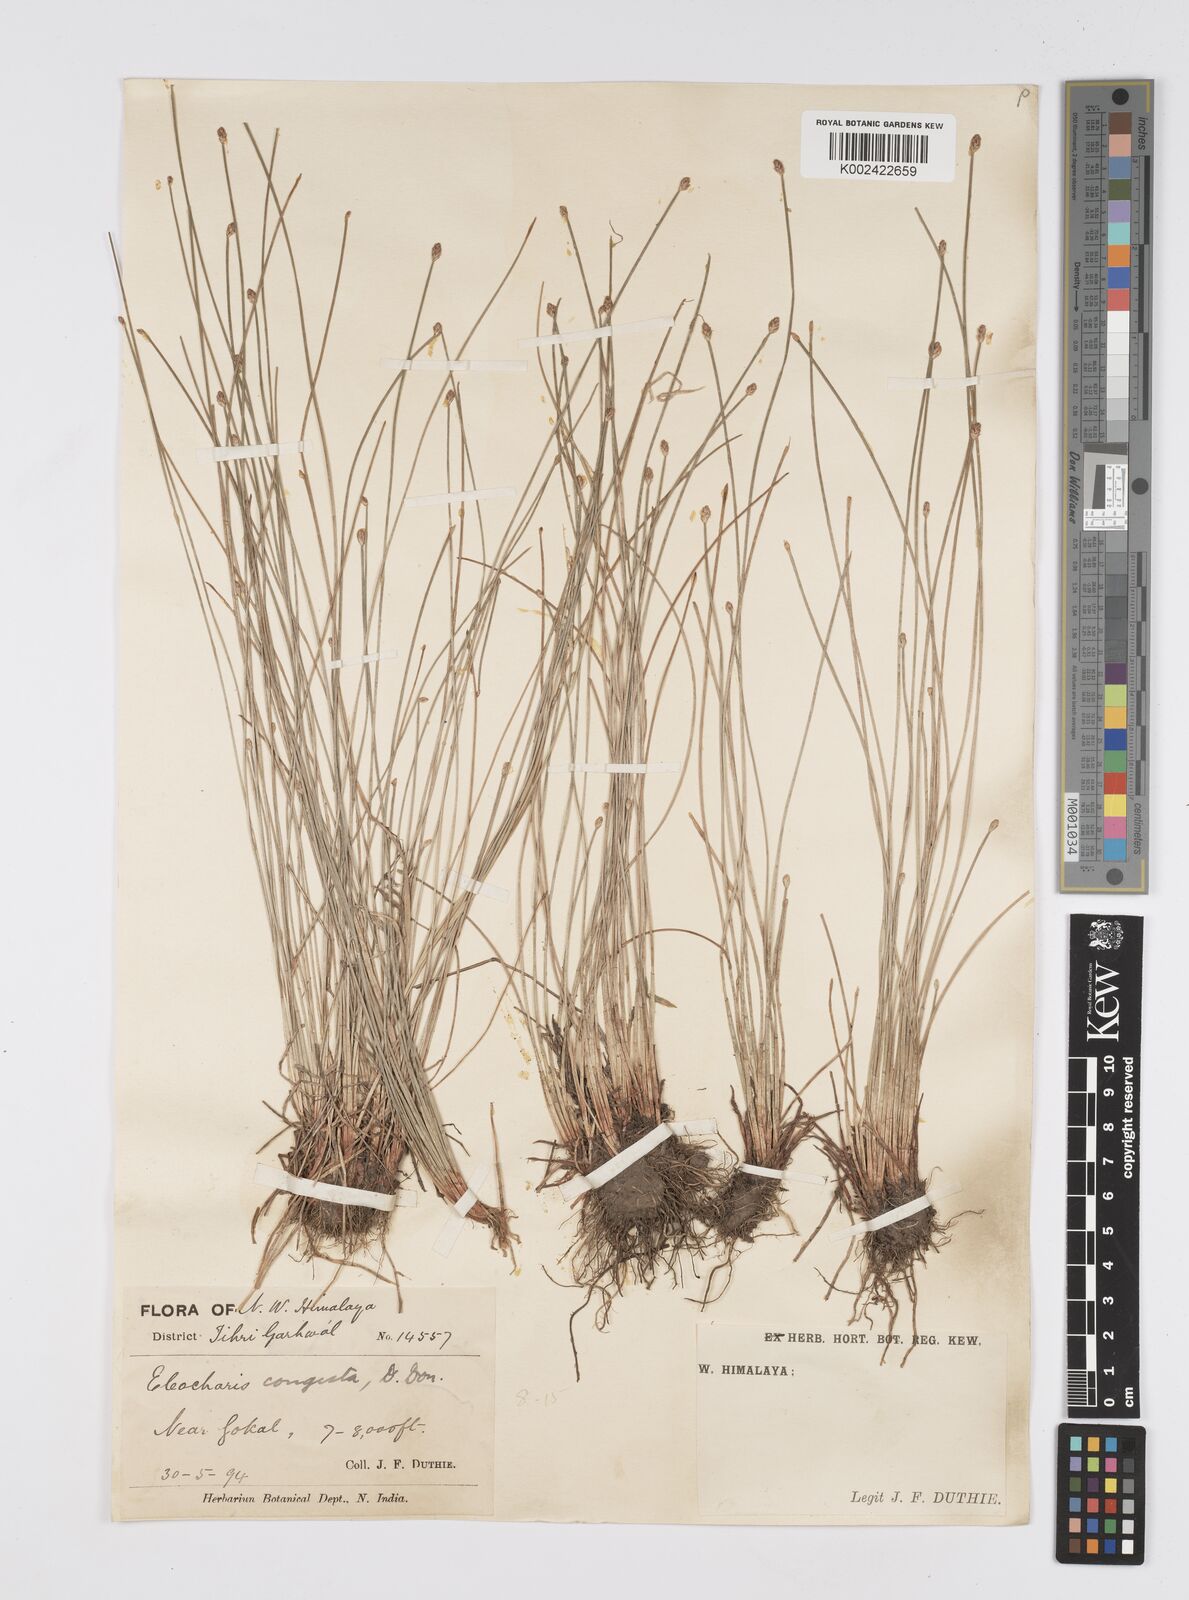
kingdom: Plantae
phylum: Tracheophyta
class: Liliopsida
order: Poales
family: Cyperaceae
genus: Eleocharis
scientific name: Eleocharis congesta
